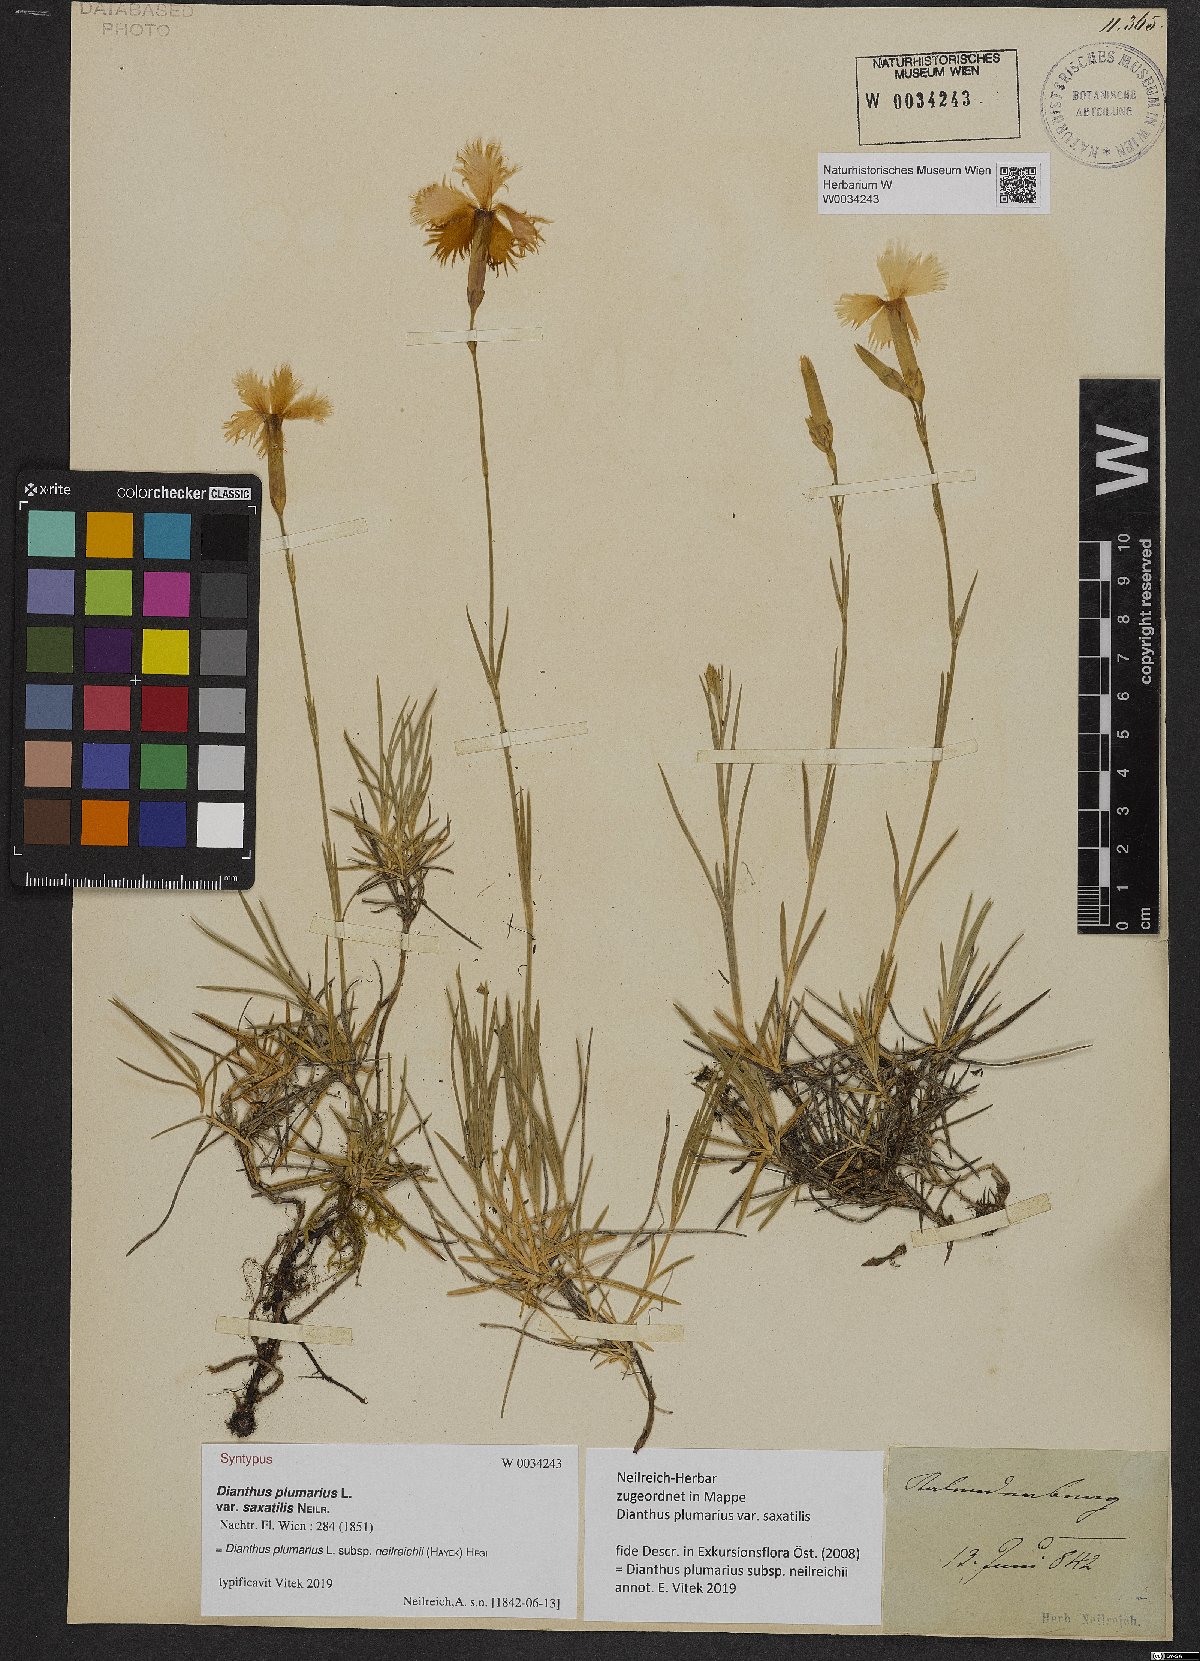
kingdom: Plantae
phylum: Tracheophyta
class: Magnoliopsida
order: Caryophyllales
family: Caryophyllaceae
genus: Dianthus
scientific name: Dianthus plumarius
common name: Pink
